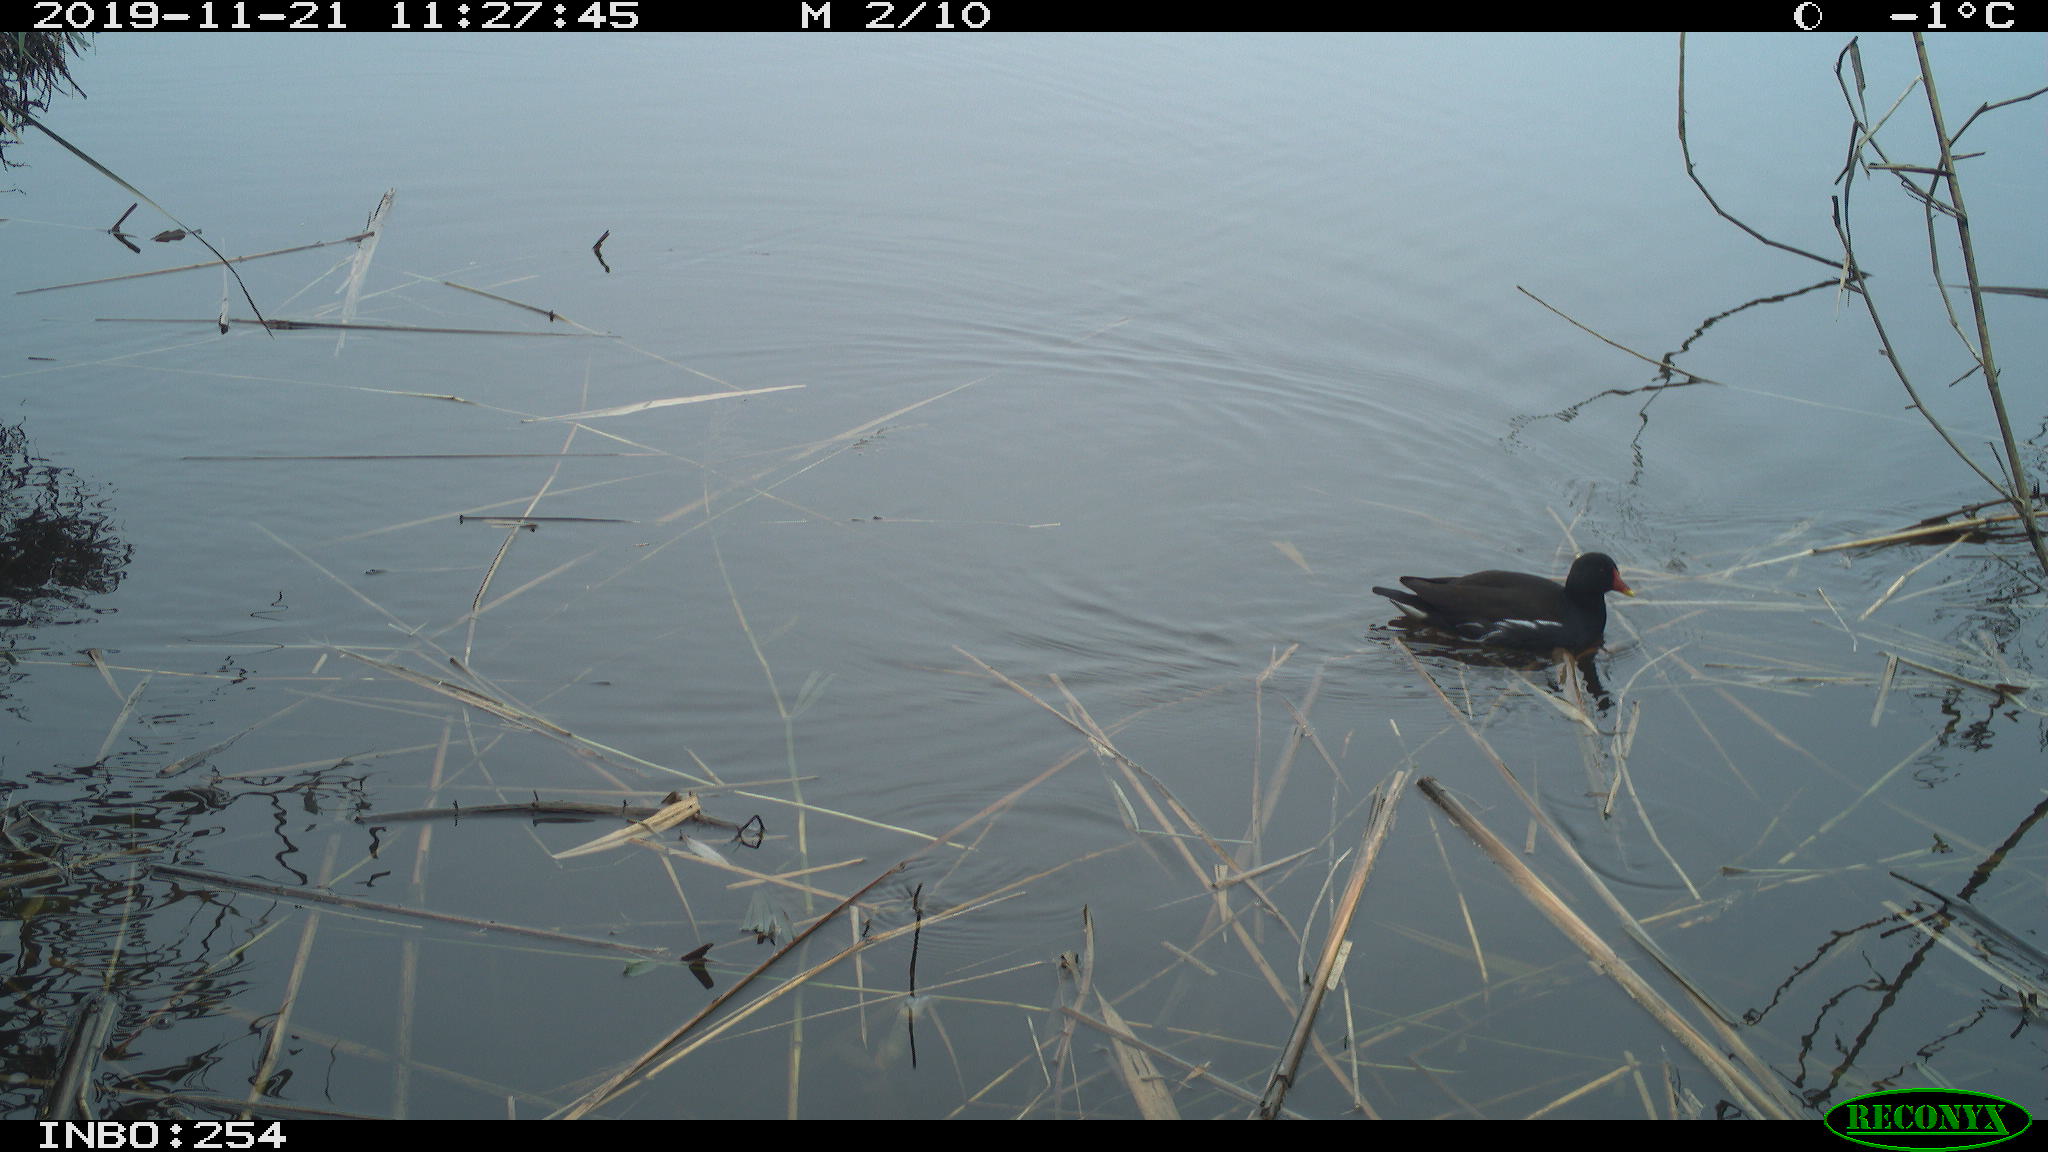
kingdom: Animalia
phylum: Chordata
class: Aves
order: Gruiformes
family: Rallidae
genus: Gallinula
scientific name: Gallinula chloropus
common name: Common moorhen
